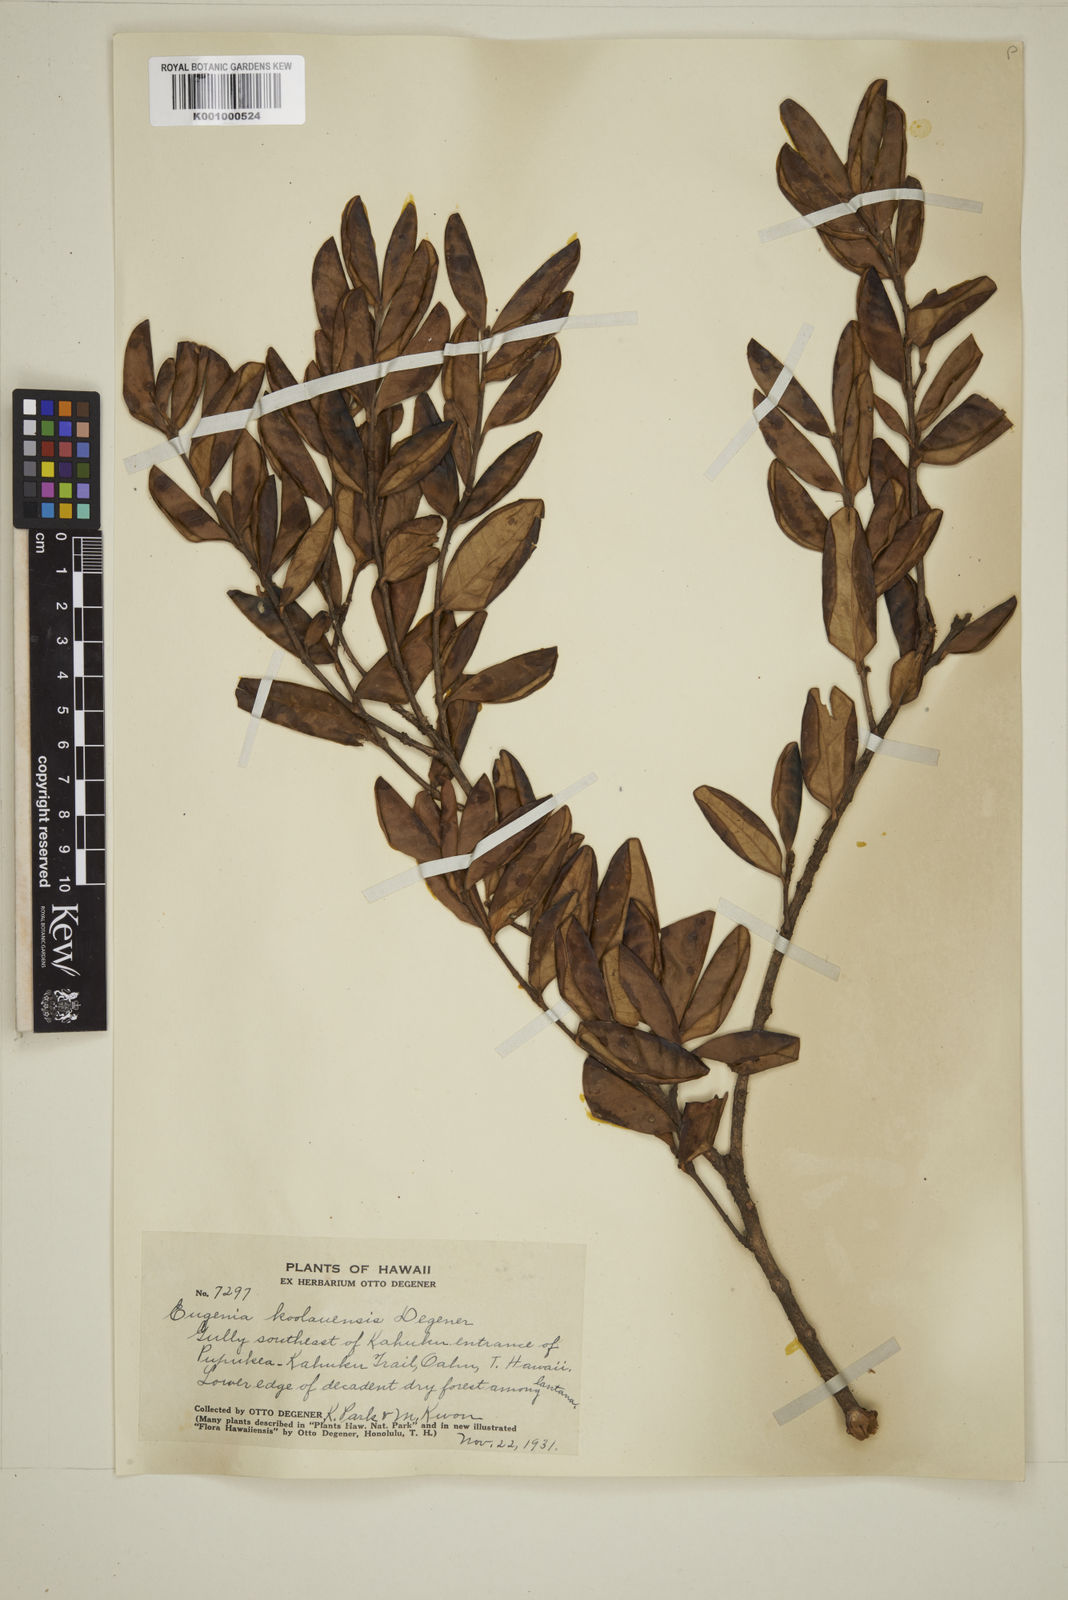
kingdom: Plantae
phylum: Tracheophyta
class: Magnoliopsida
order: Myrtales
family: Myrtaceae
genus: Eugenia
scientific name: Eugenia koolauensis
